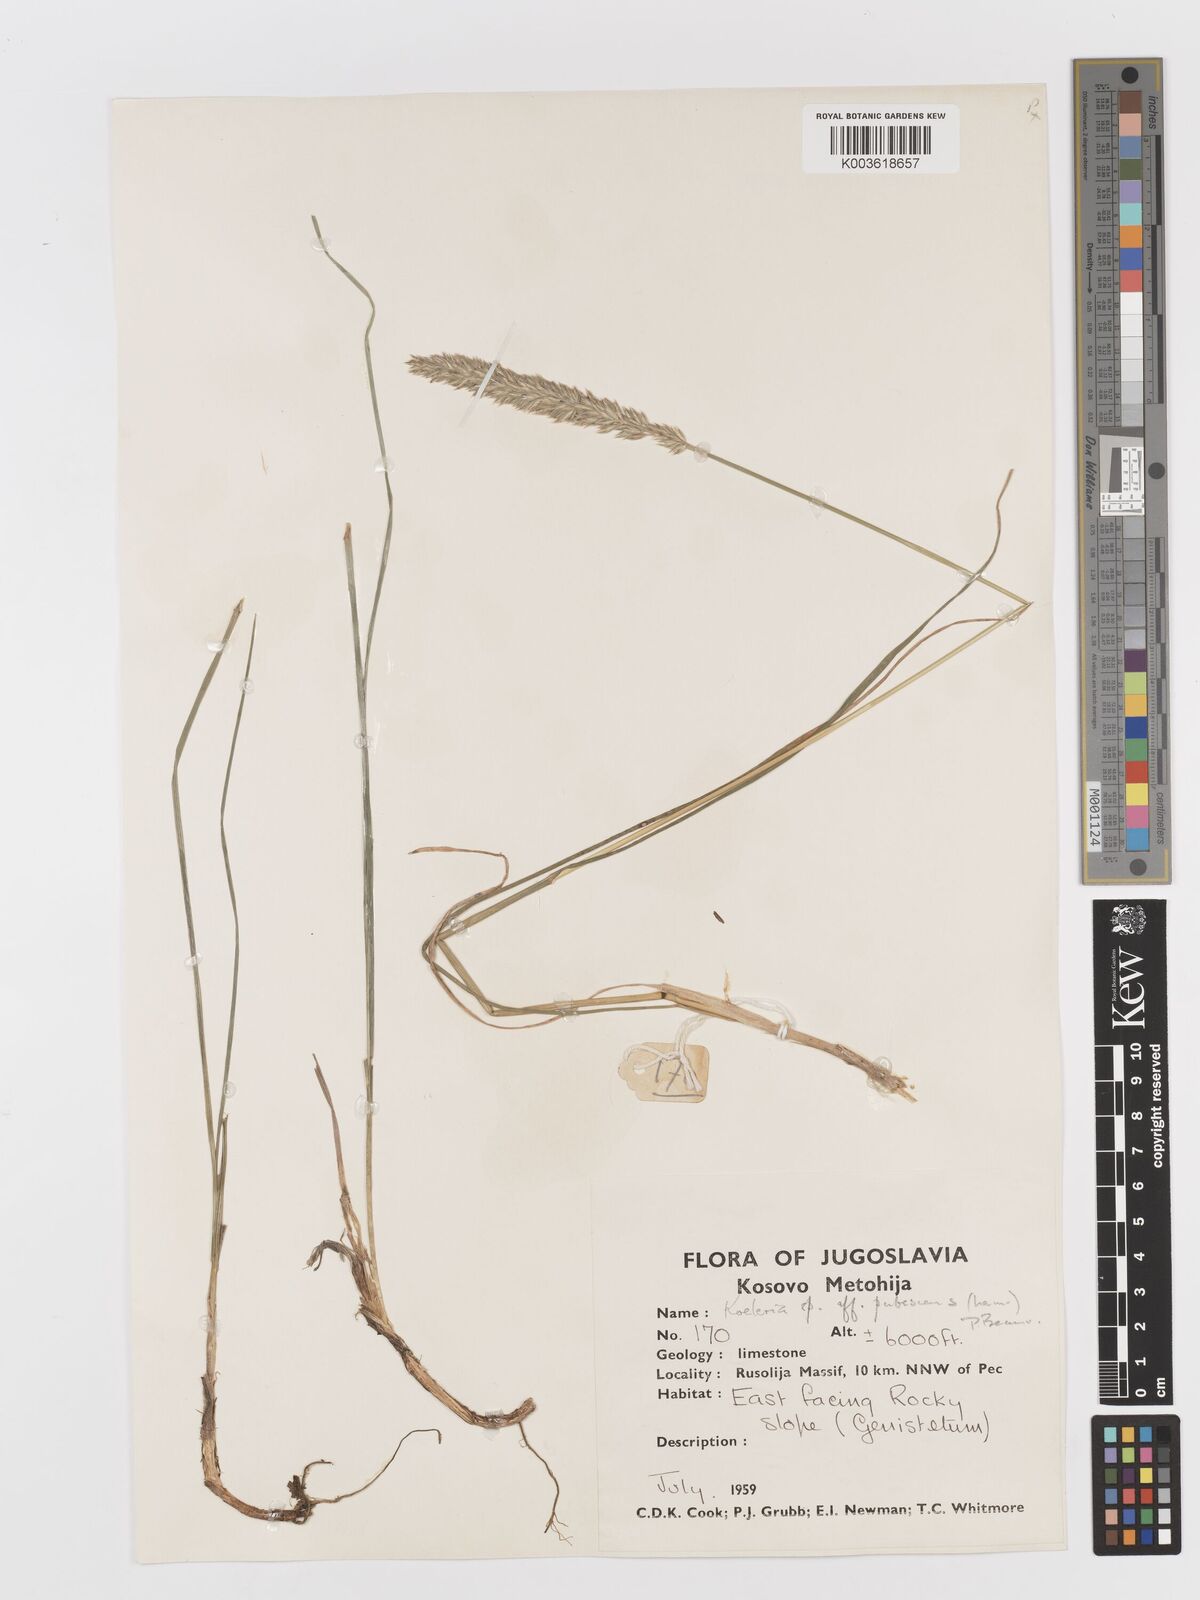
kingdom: Plantae
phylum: Tracheophyta
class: Liliopsida
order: Poales
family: Poaceae
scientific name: Poaceae
